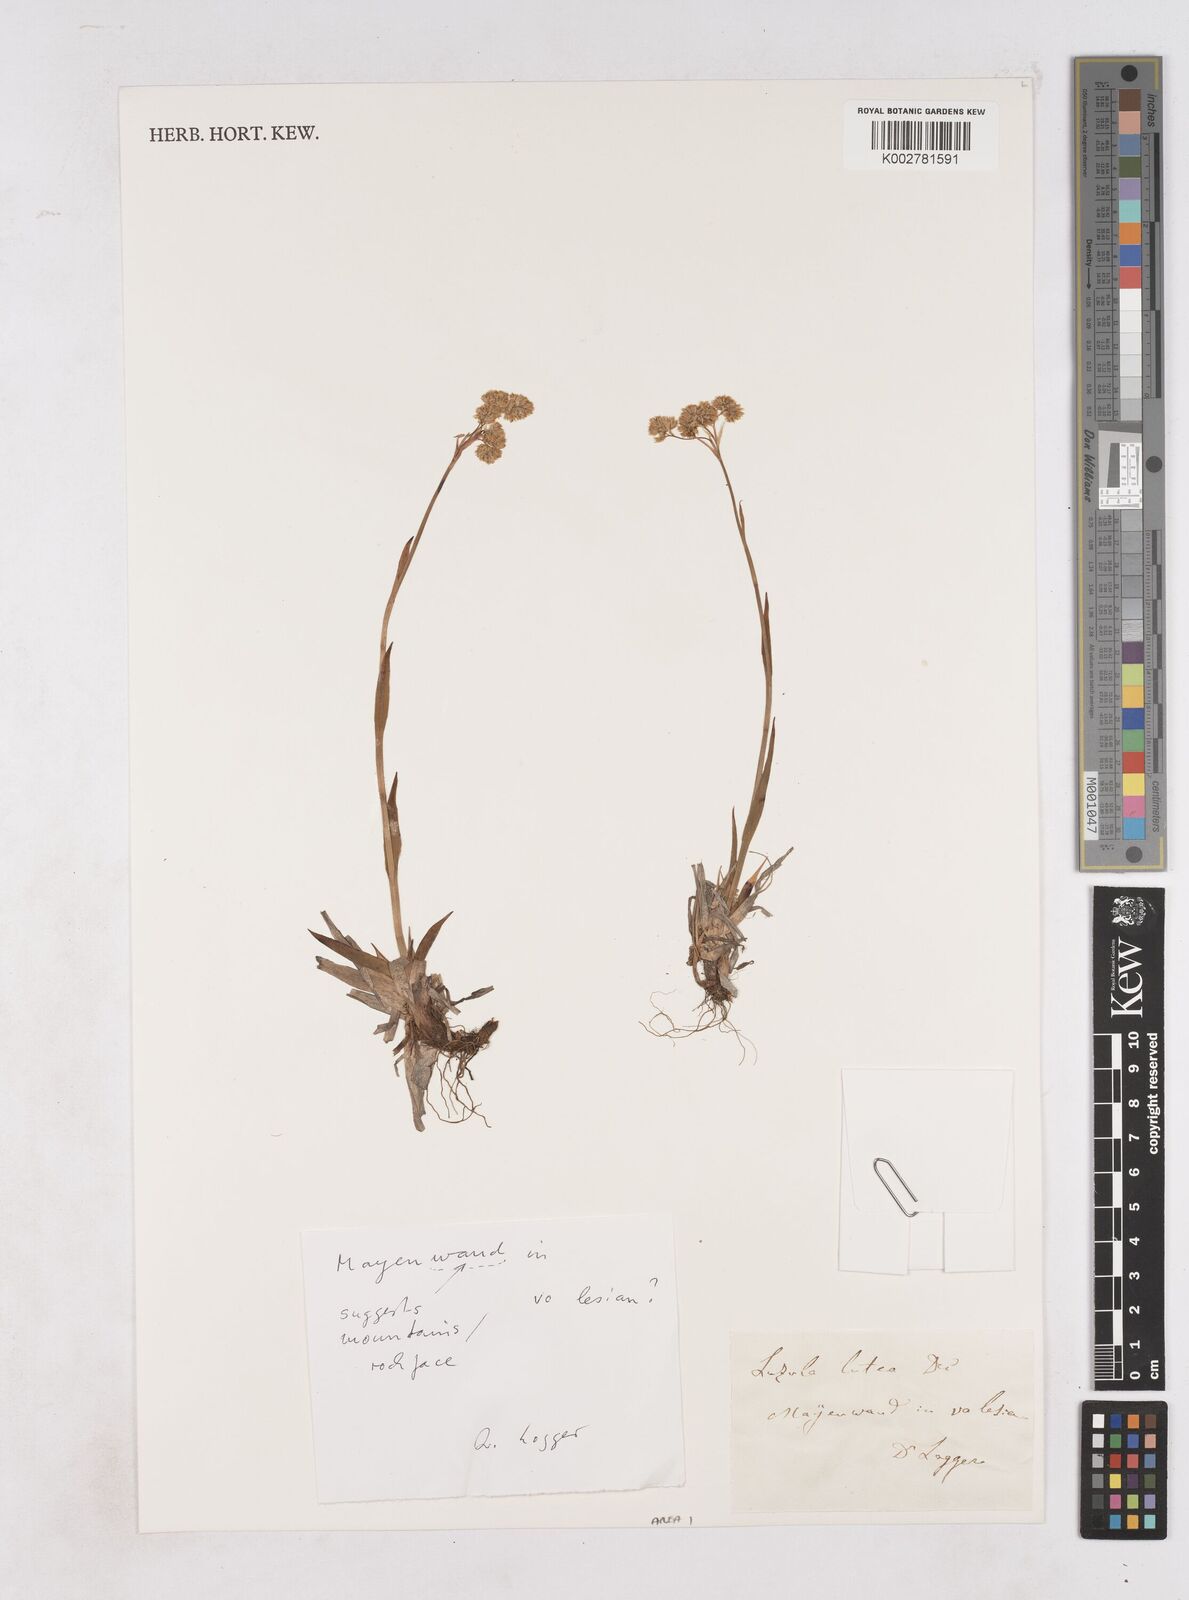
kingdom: Plantae
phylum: Tracheophyta
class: Liliopsida
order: Poales
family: Juncaceae
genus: Luzula
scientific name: Luzula lutea
